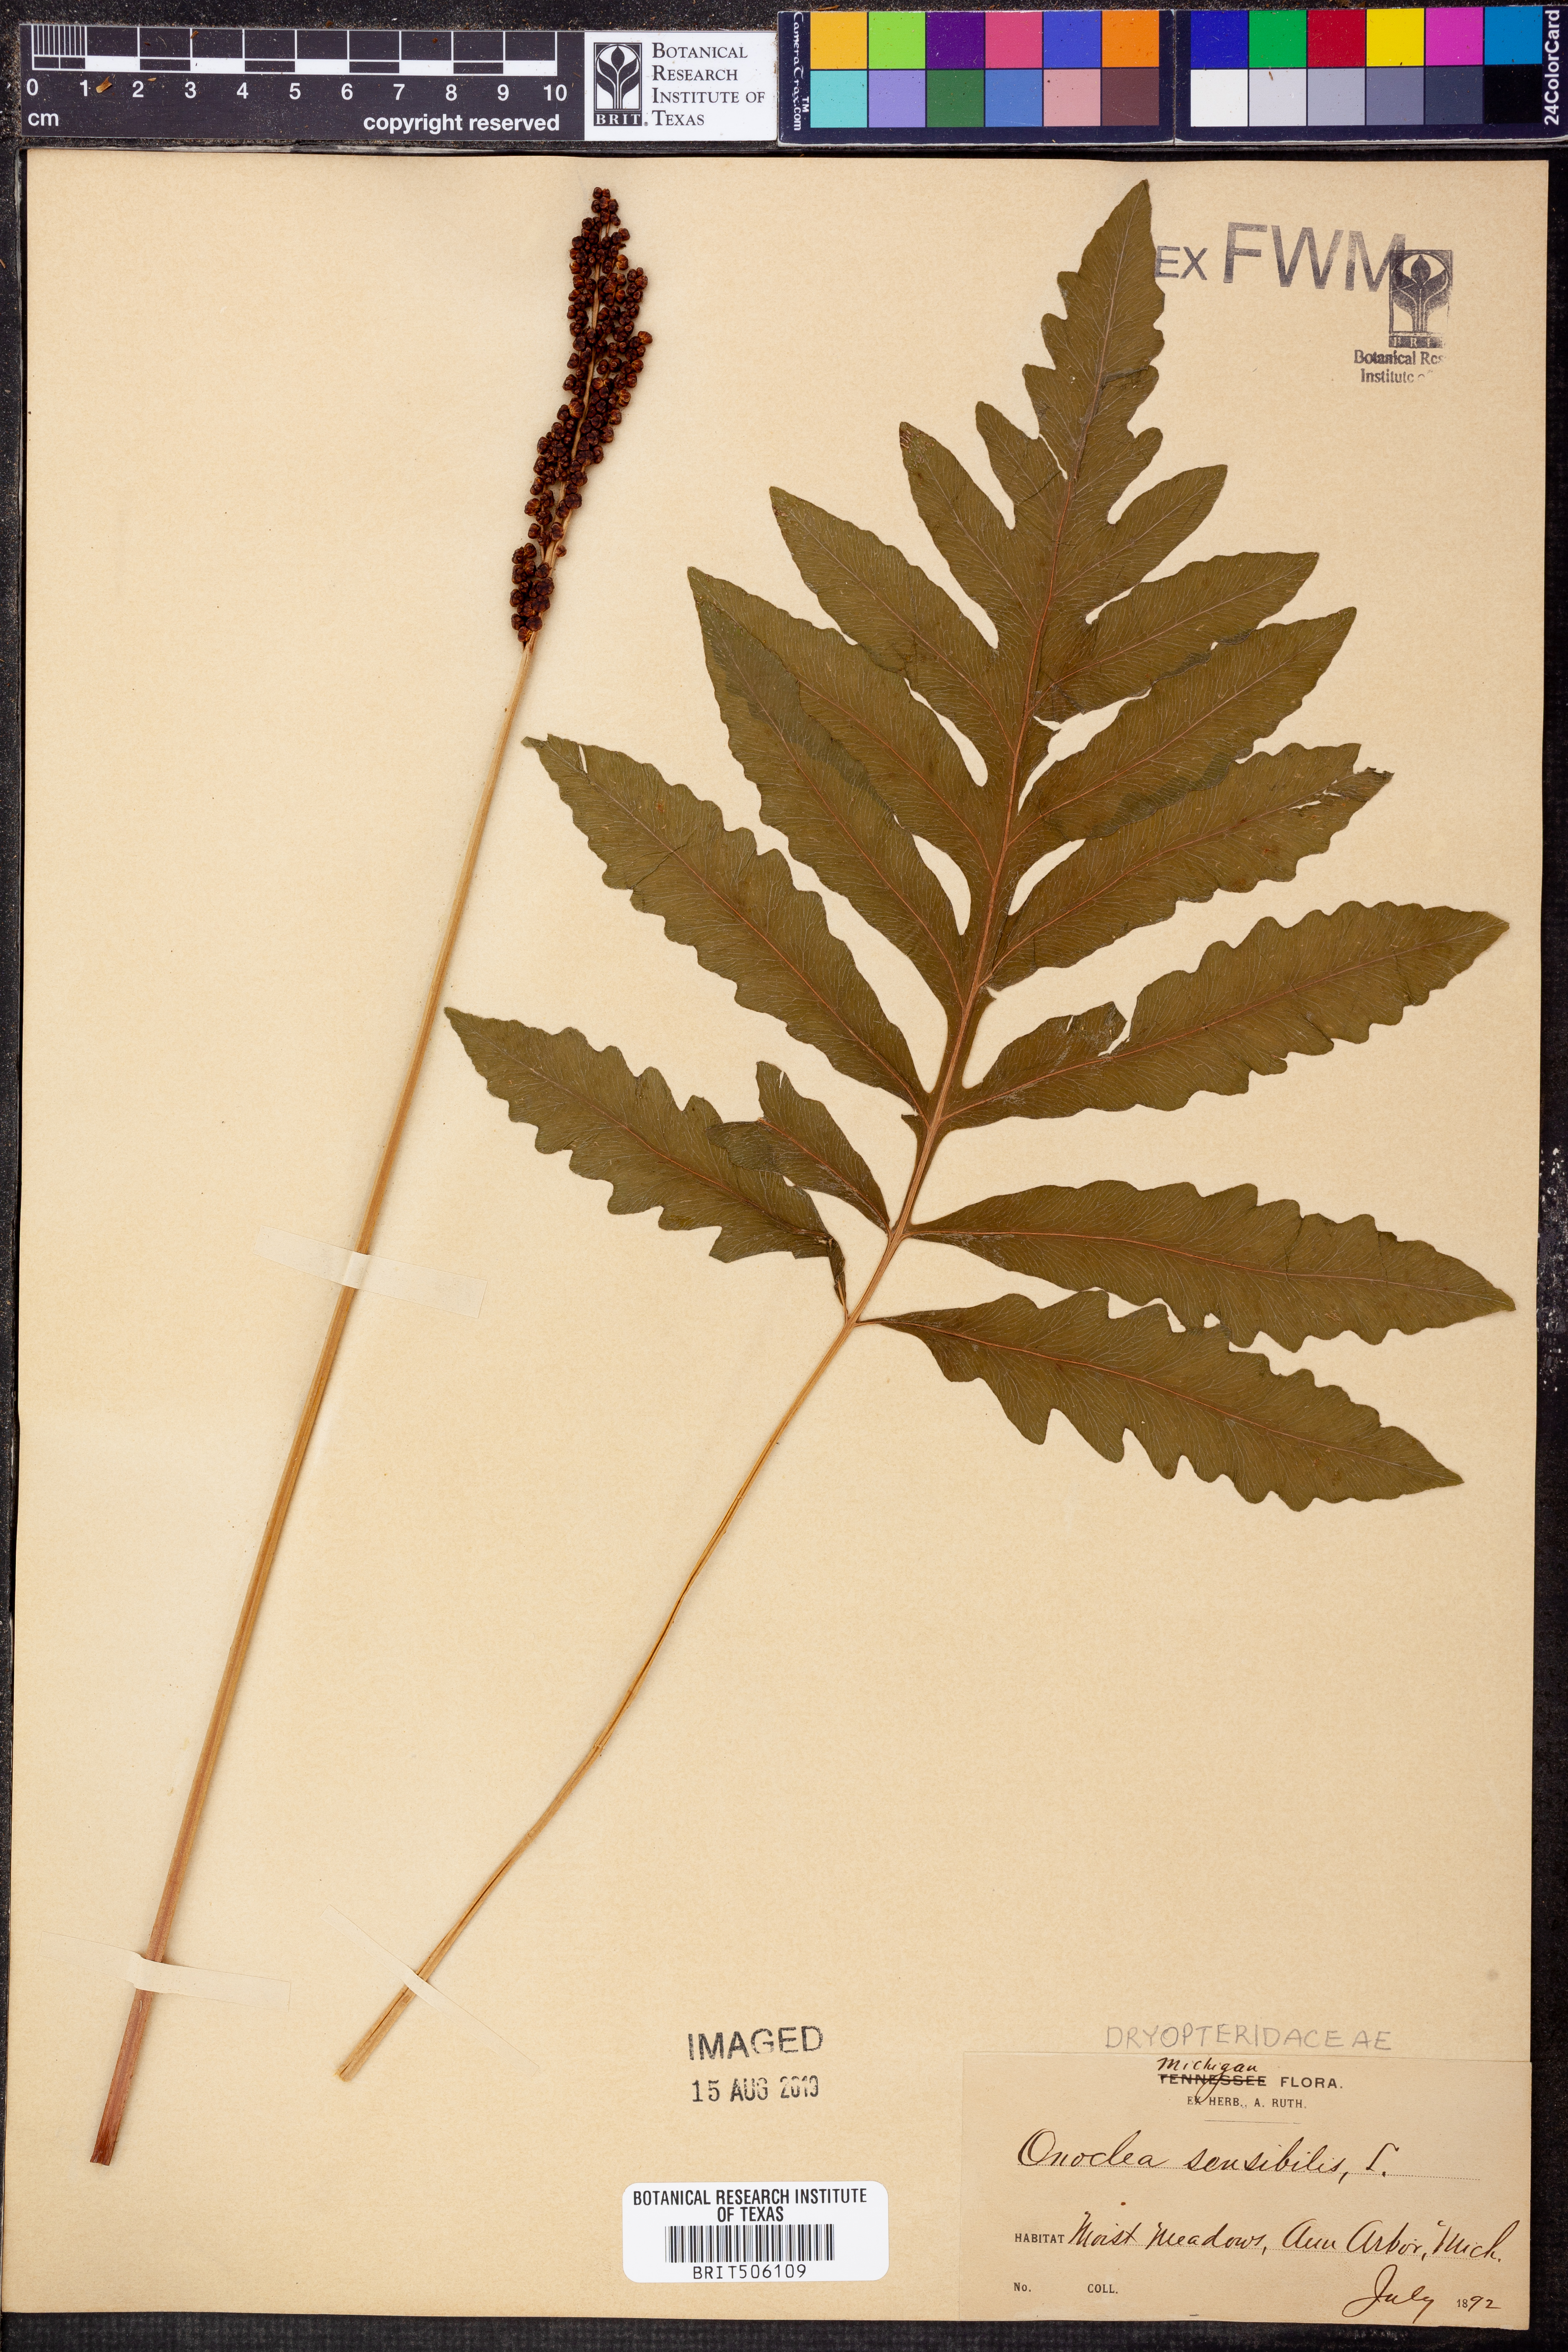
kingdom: Plantae
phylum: Tracheophyta
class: Polypodiopsida
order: Polypodiales
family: Onocleaceae
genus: Onoclea
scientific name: Onoclea sensibilis
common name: Sensitive fern
